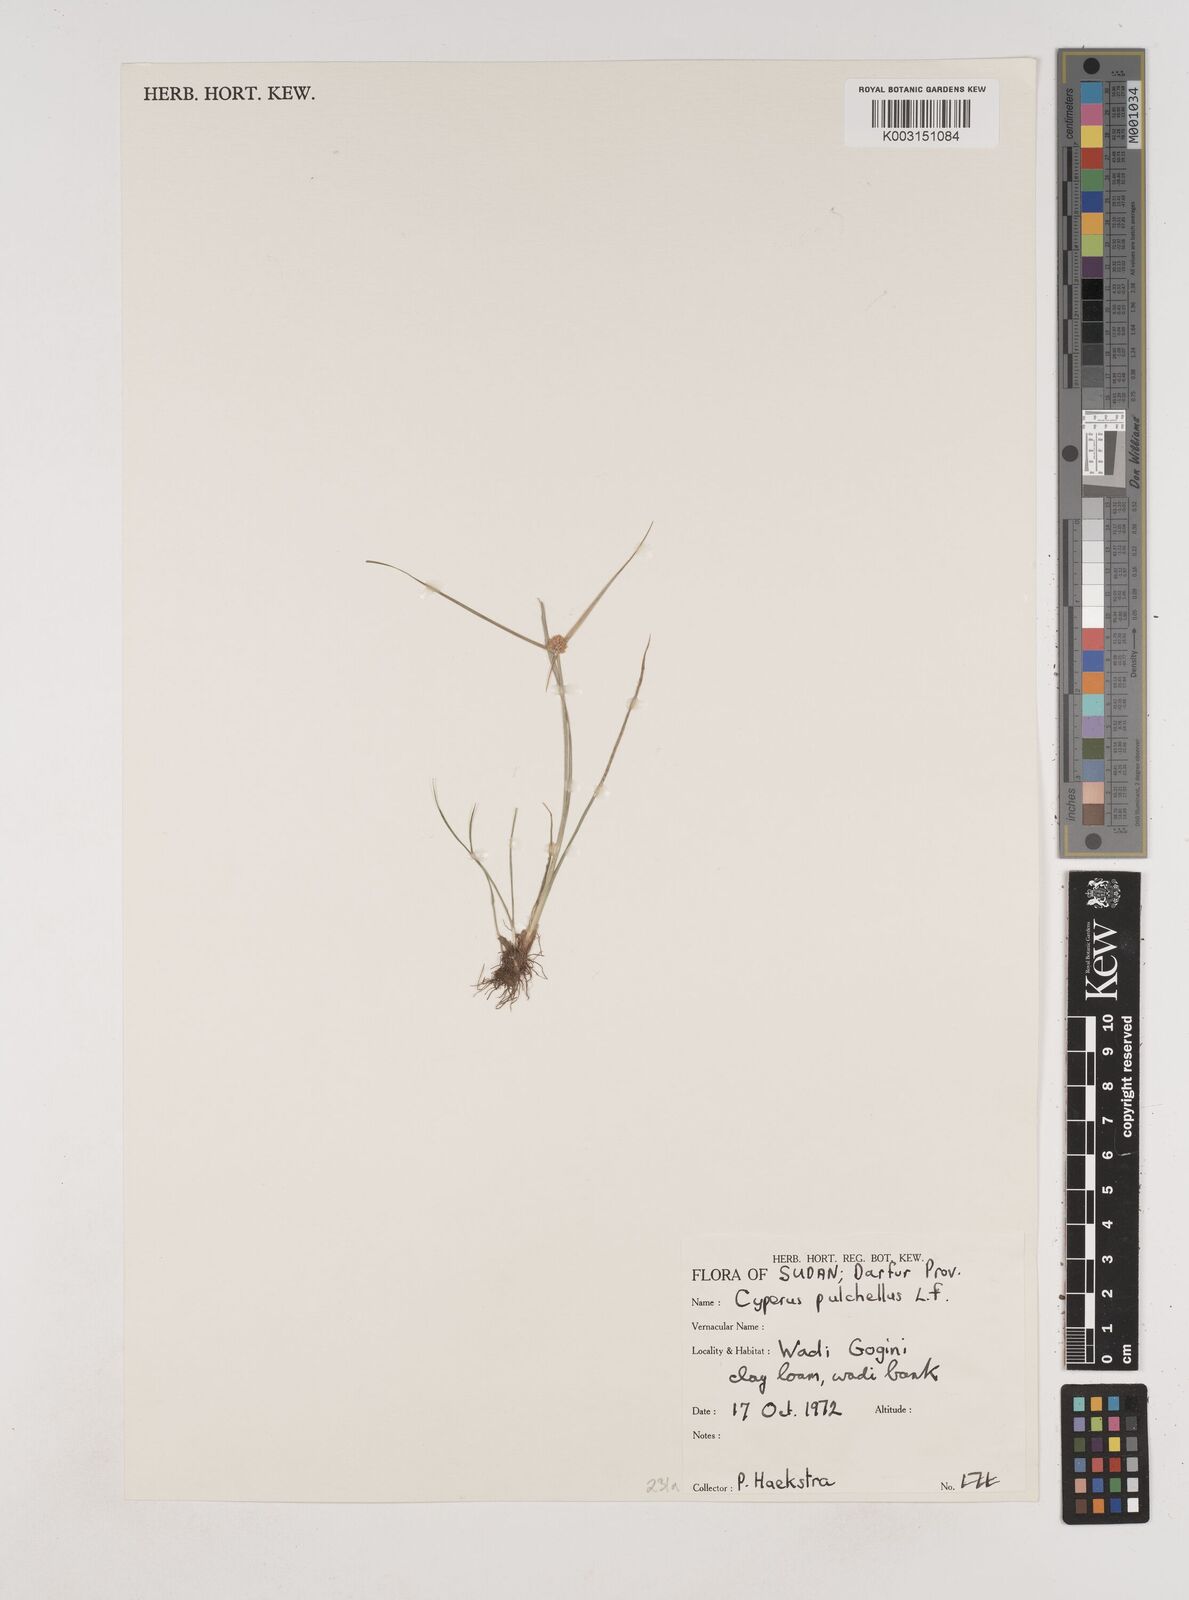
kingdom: Plantae
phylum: Tracheophyta
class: Liliopsida
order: Poales
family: Cyperaceae
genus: Cyperus
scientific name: Cyperus pulchellus
